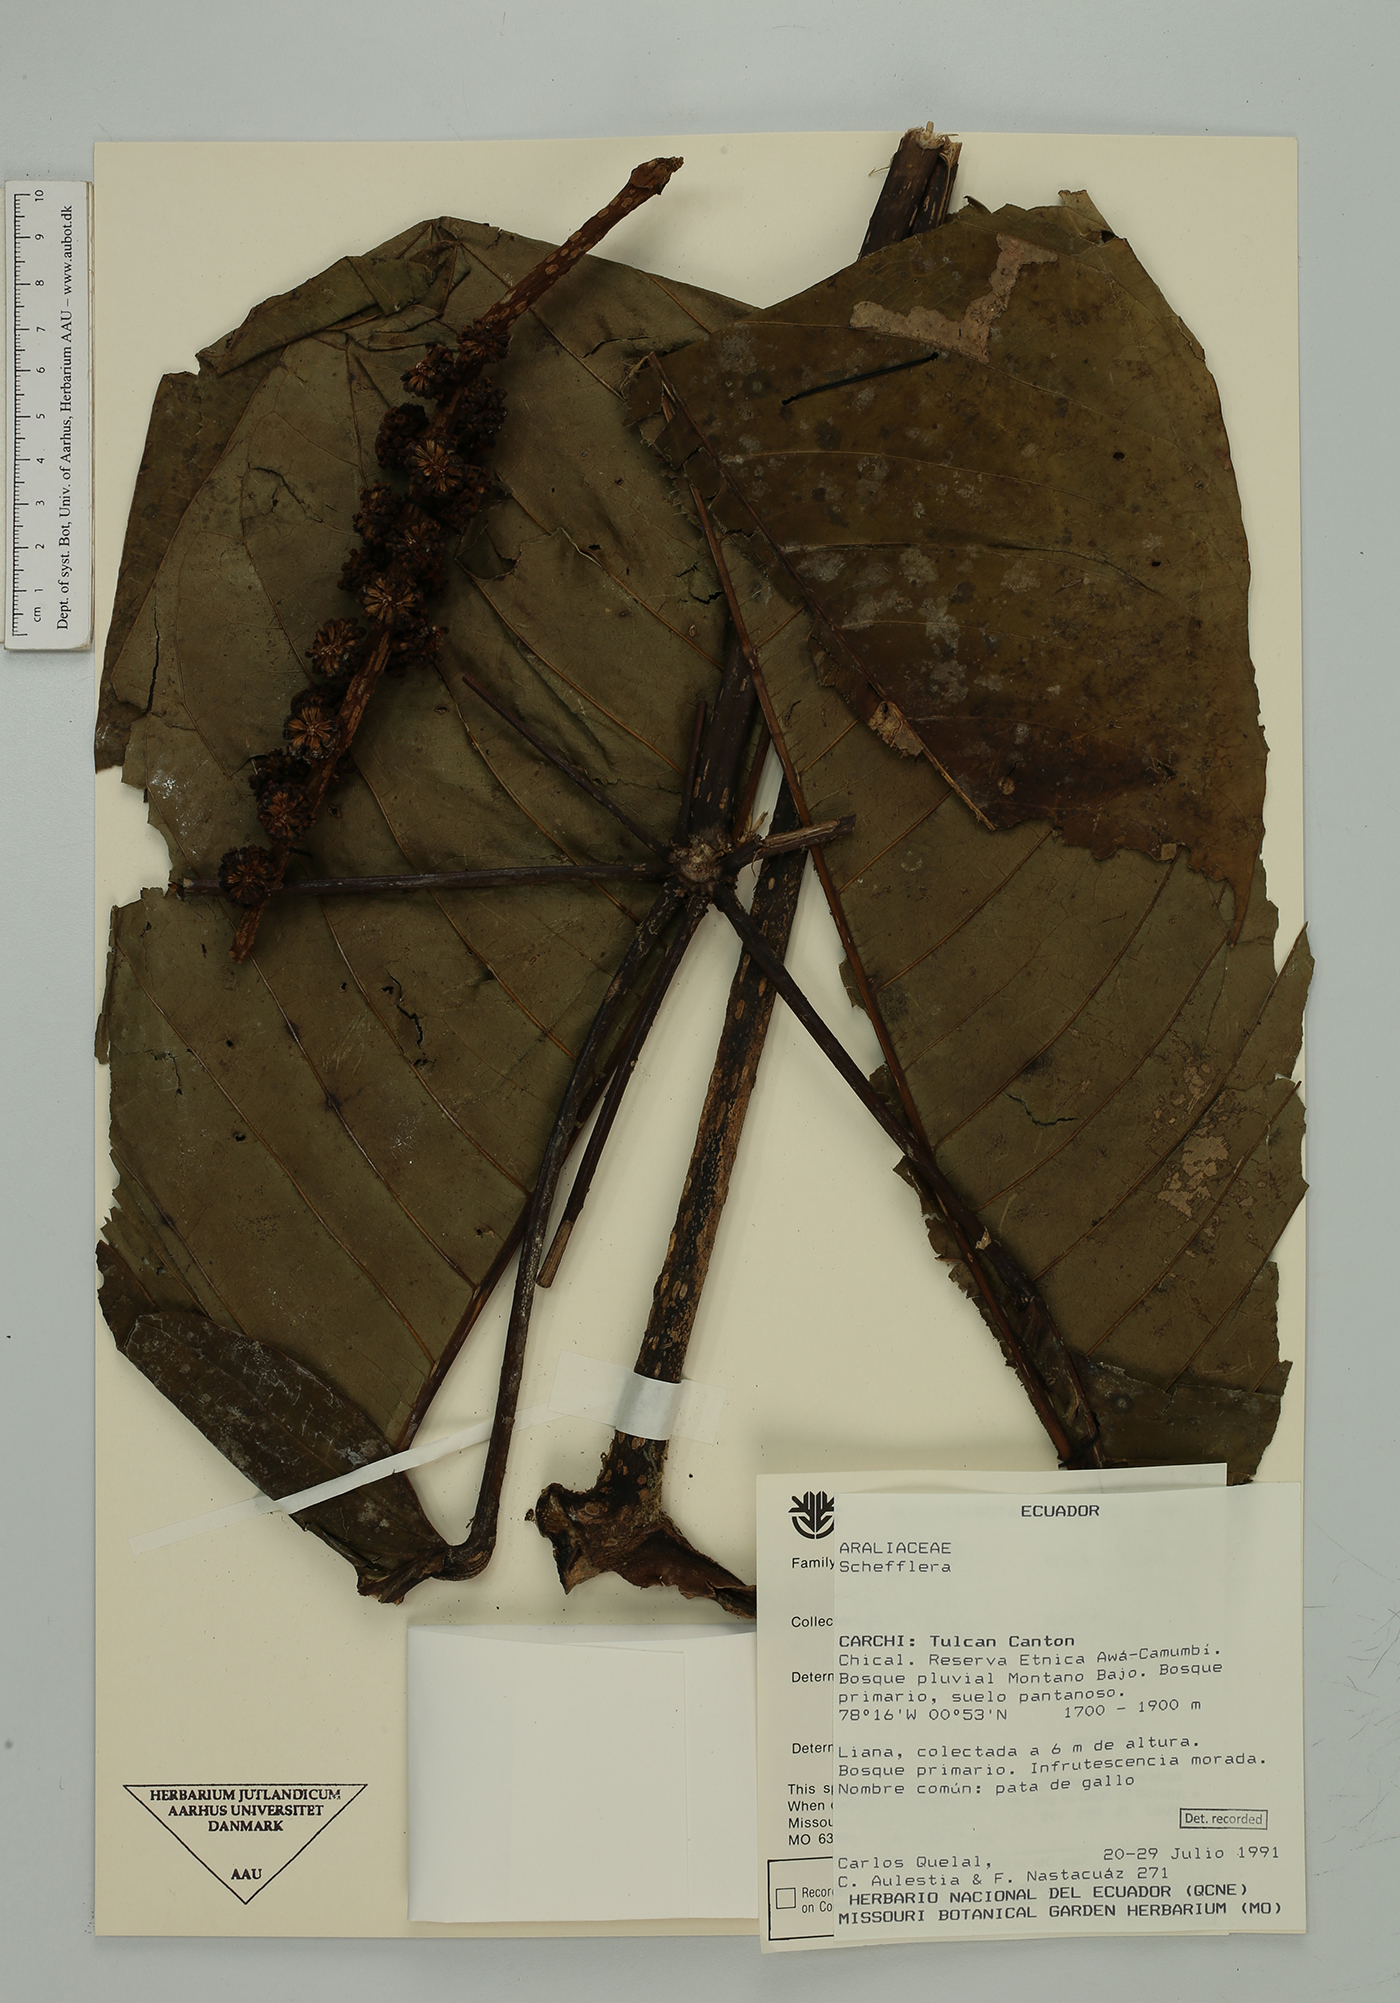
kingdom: Plantae
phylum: Tracheophyta
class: Magnoliopsida
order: Apiales
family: Araliaceae
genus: Sciodaphyllum
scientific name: Sciodaphyllum
